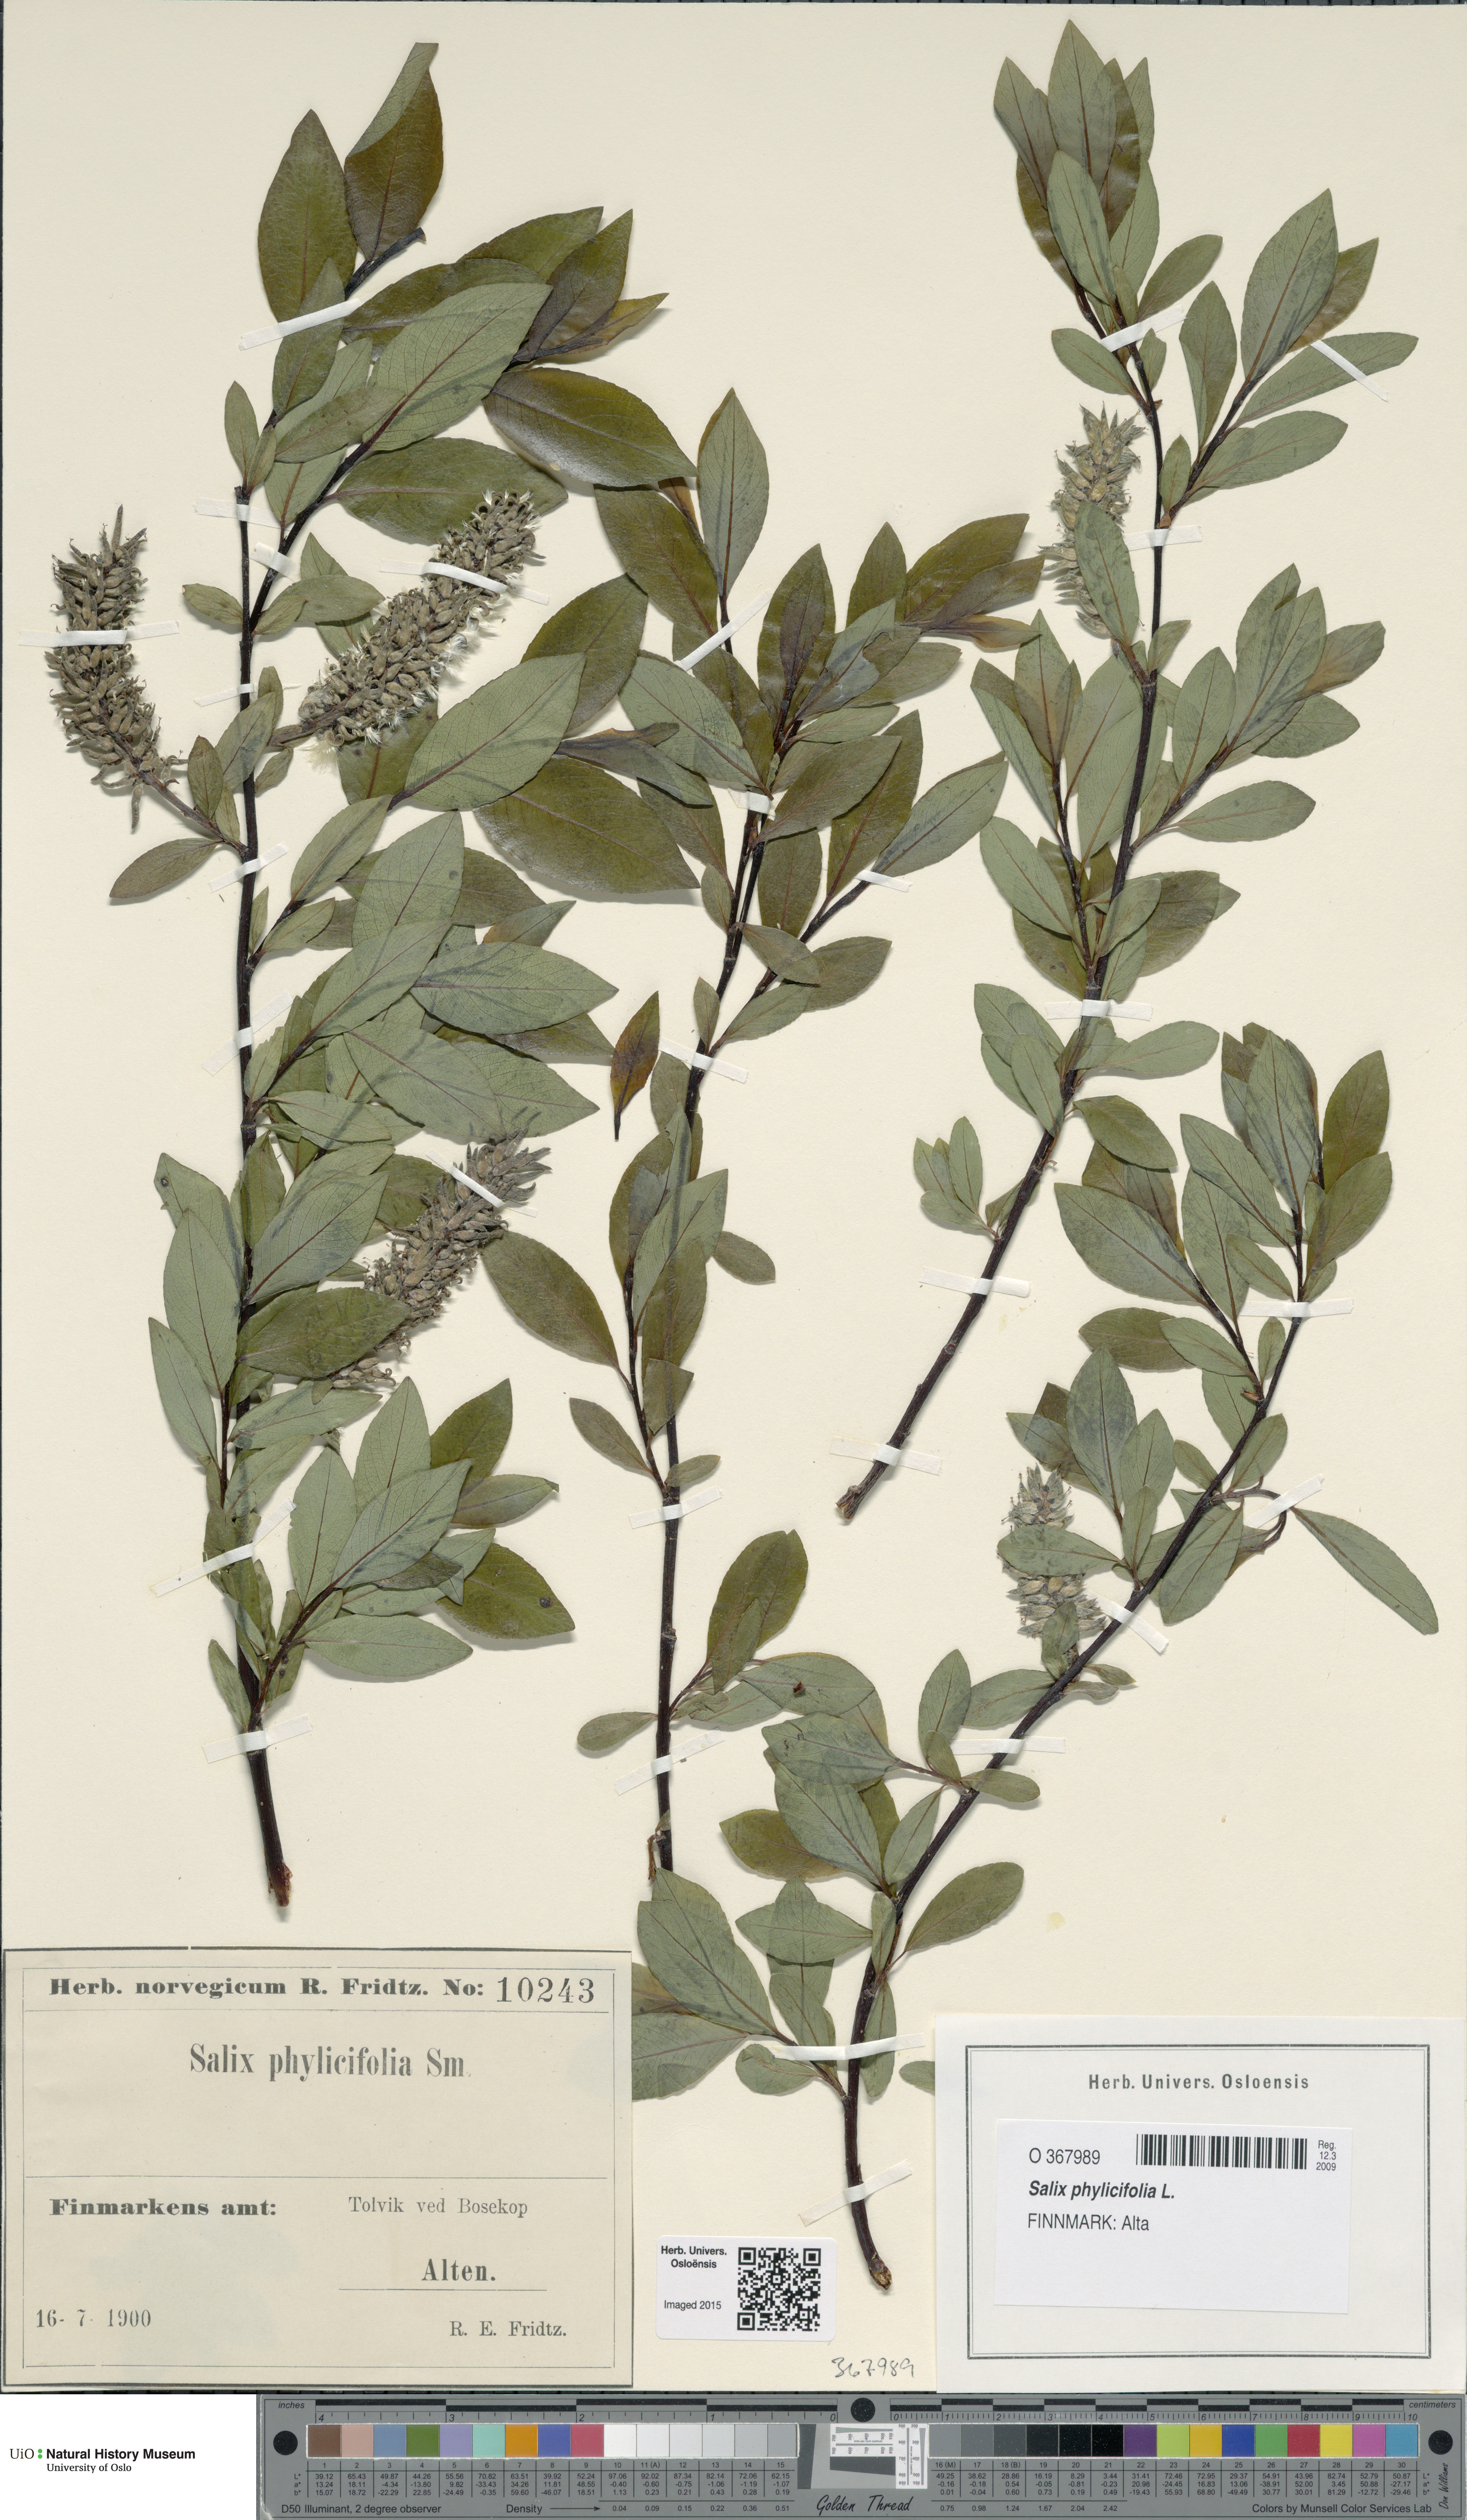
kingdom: Plantae
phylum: Tracheophyta
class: Magnoliopsida
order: Malpighiales
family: Salicaceae
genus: Salix
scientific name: Salix phylicifolia
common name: Tea-leaved willow
